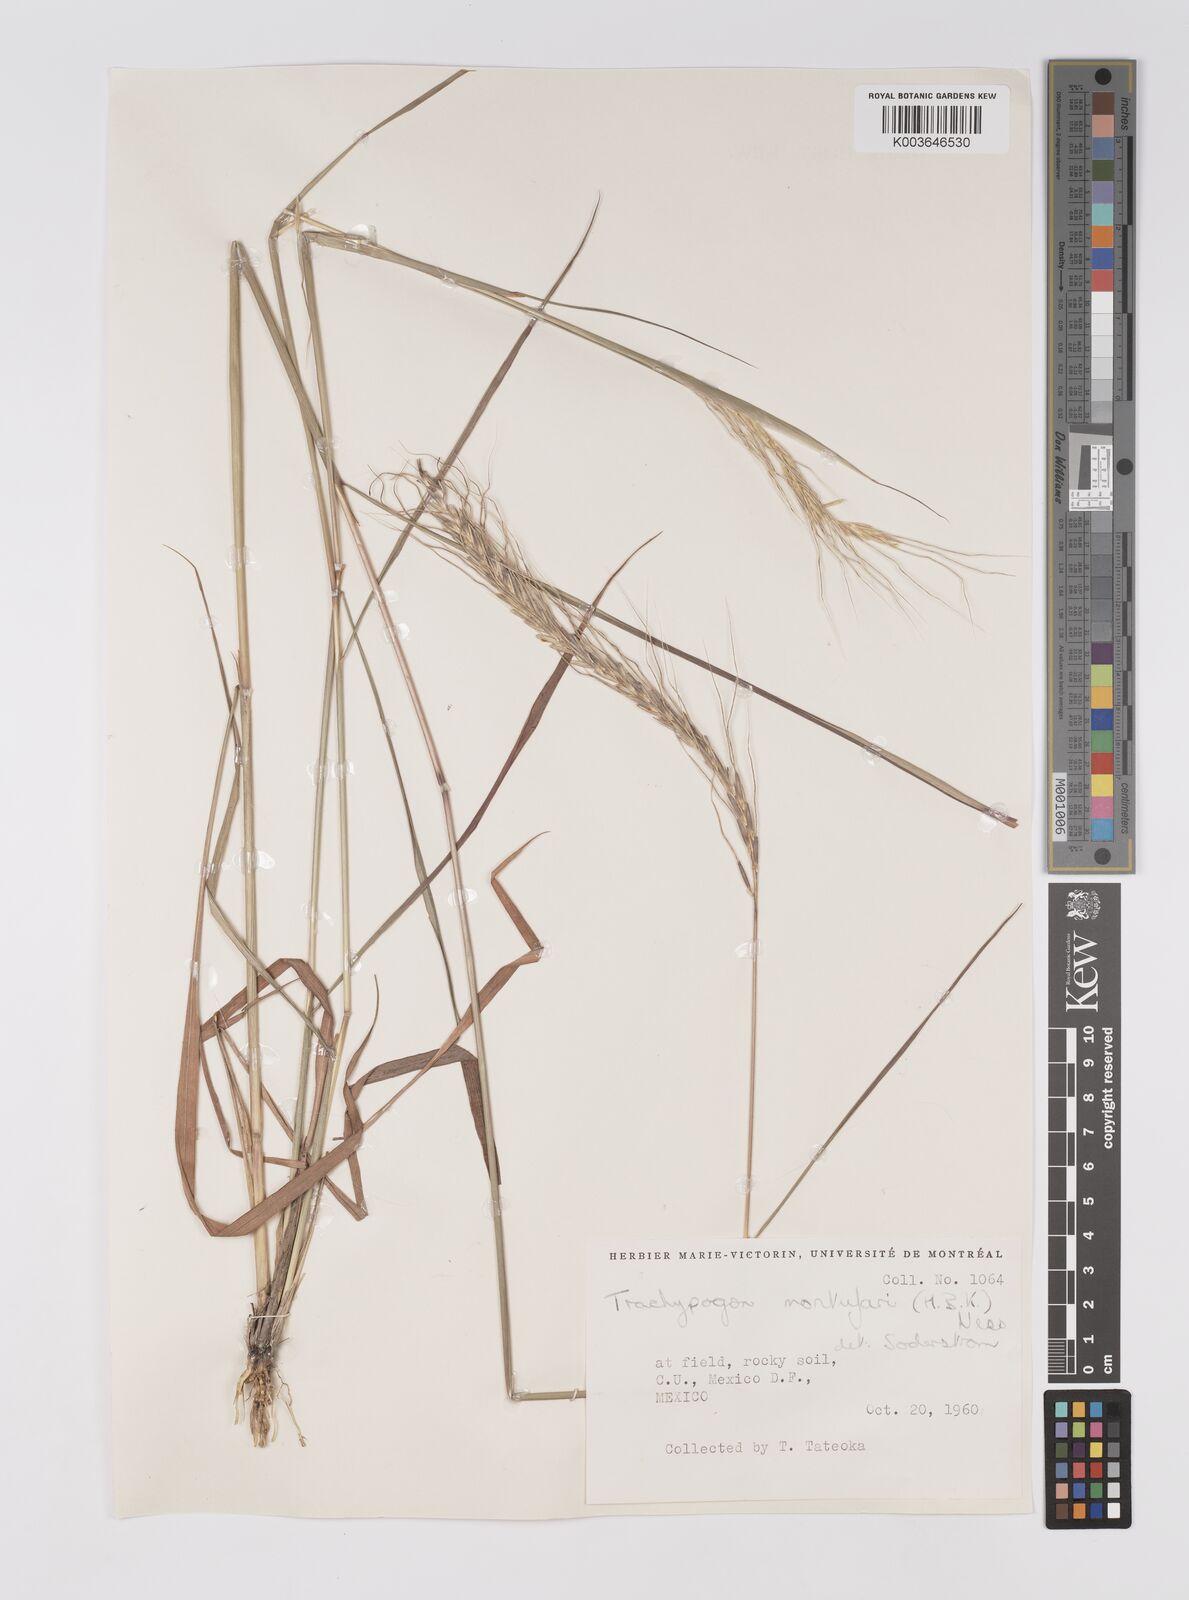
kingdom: Plantae
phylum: Tracheophyta
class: Liliopsida
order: Poales
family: Poaceae
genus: Trachypogon
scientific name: Trachypogon spicatus
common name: Crinkle-awn
